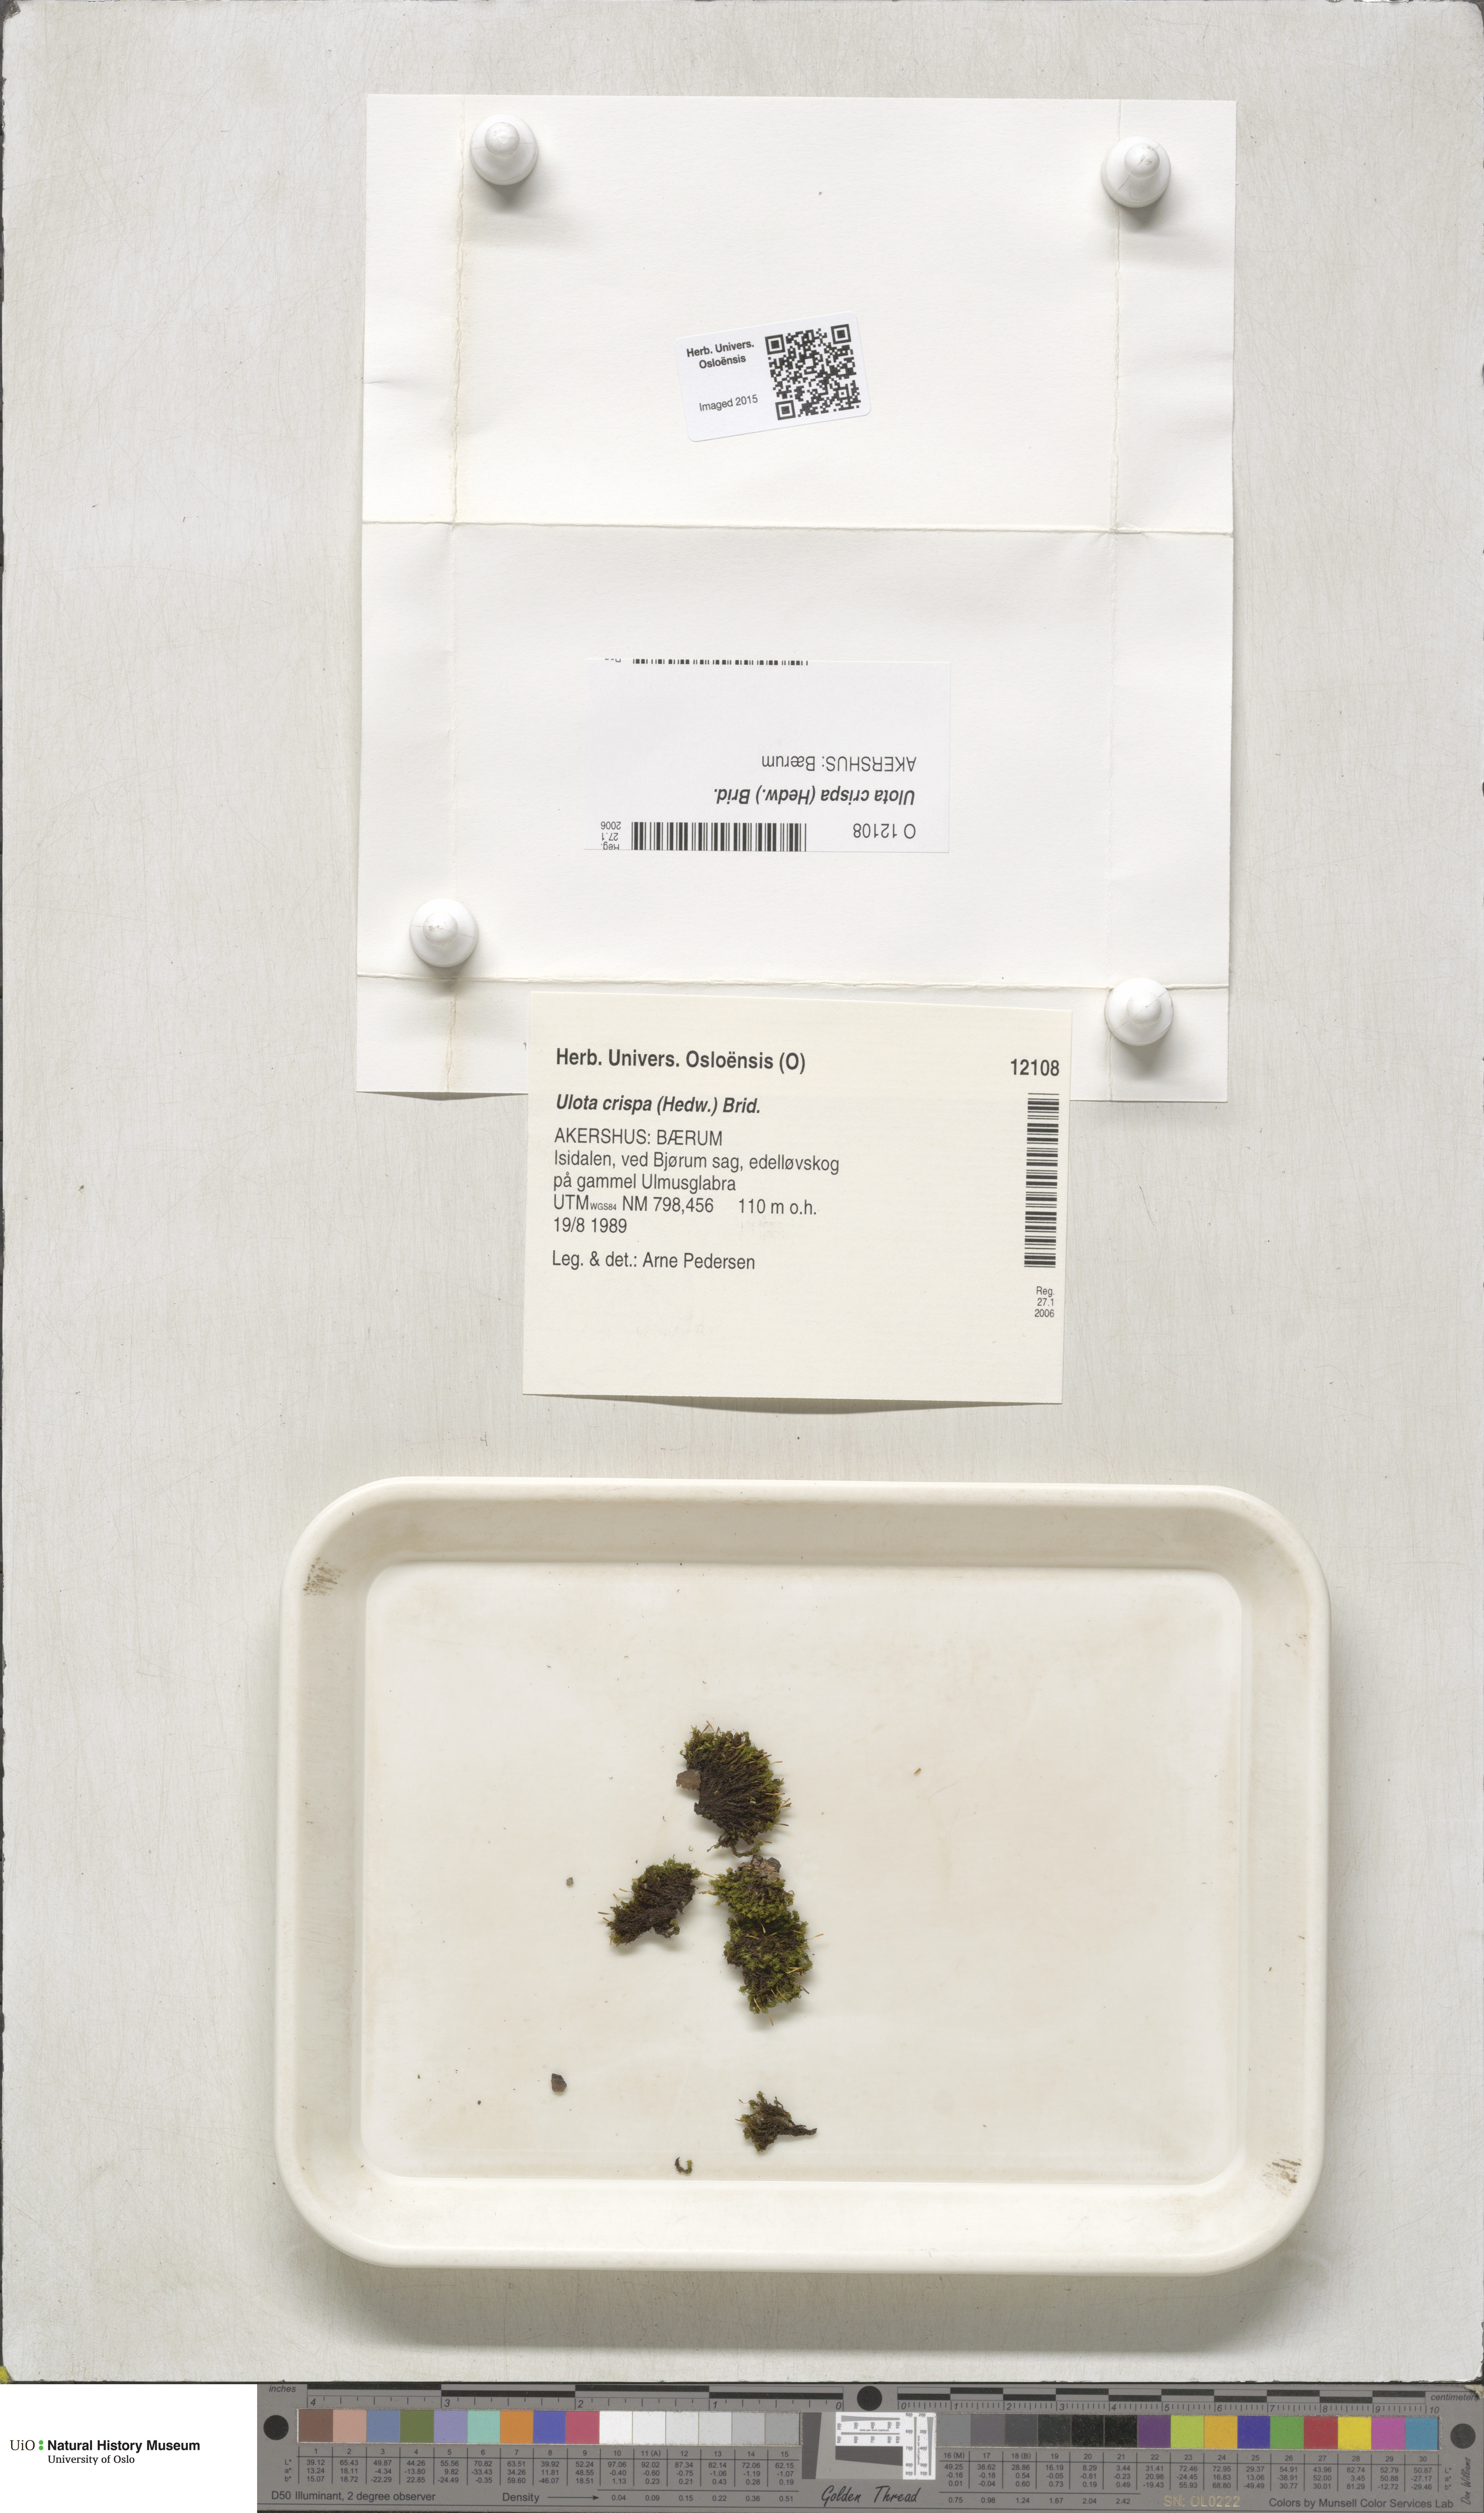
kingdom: Plantae
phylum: Bryophyta
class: Bryopsida
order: Orthotrichales
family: Orthotrichaceae
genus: Ulota
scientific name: Ulota crispa
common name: Crisped pincushion moss
